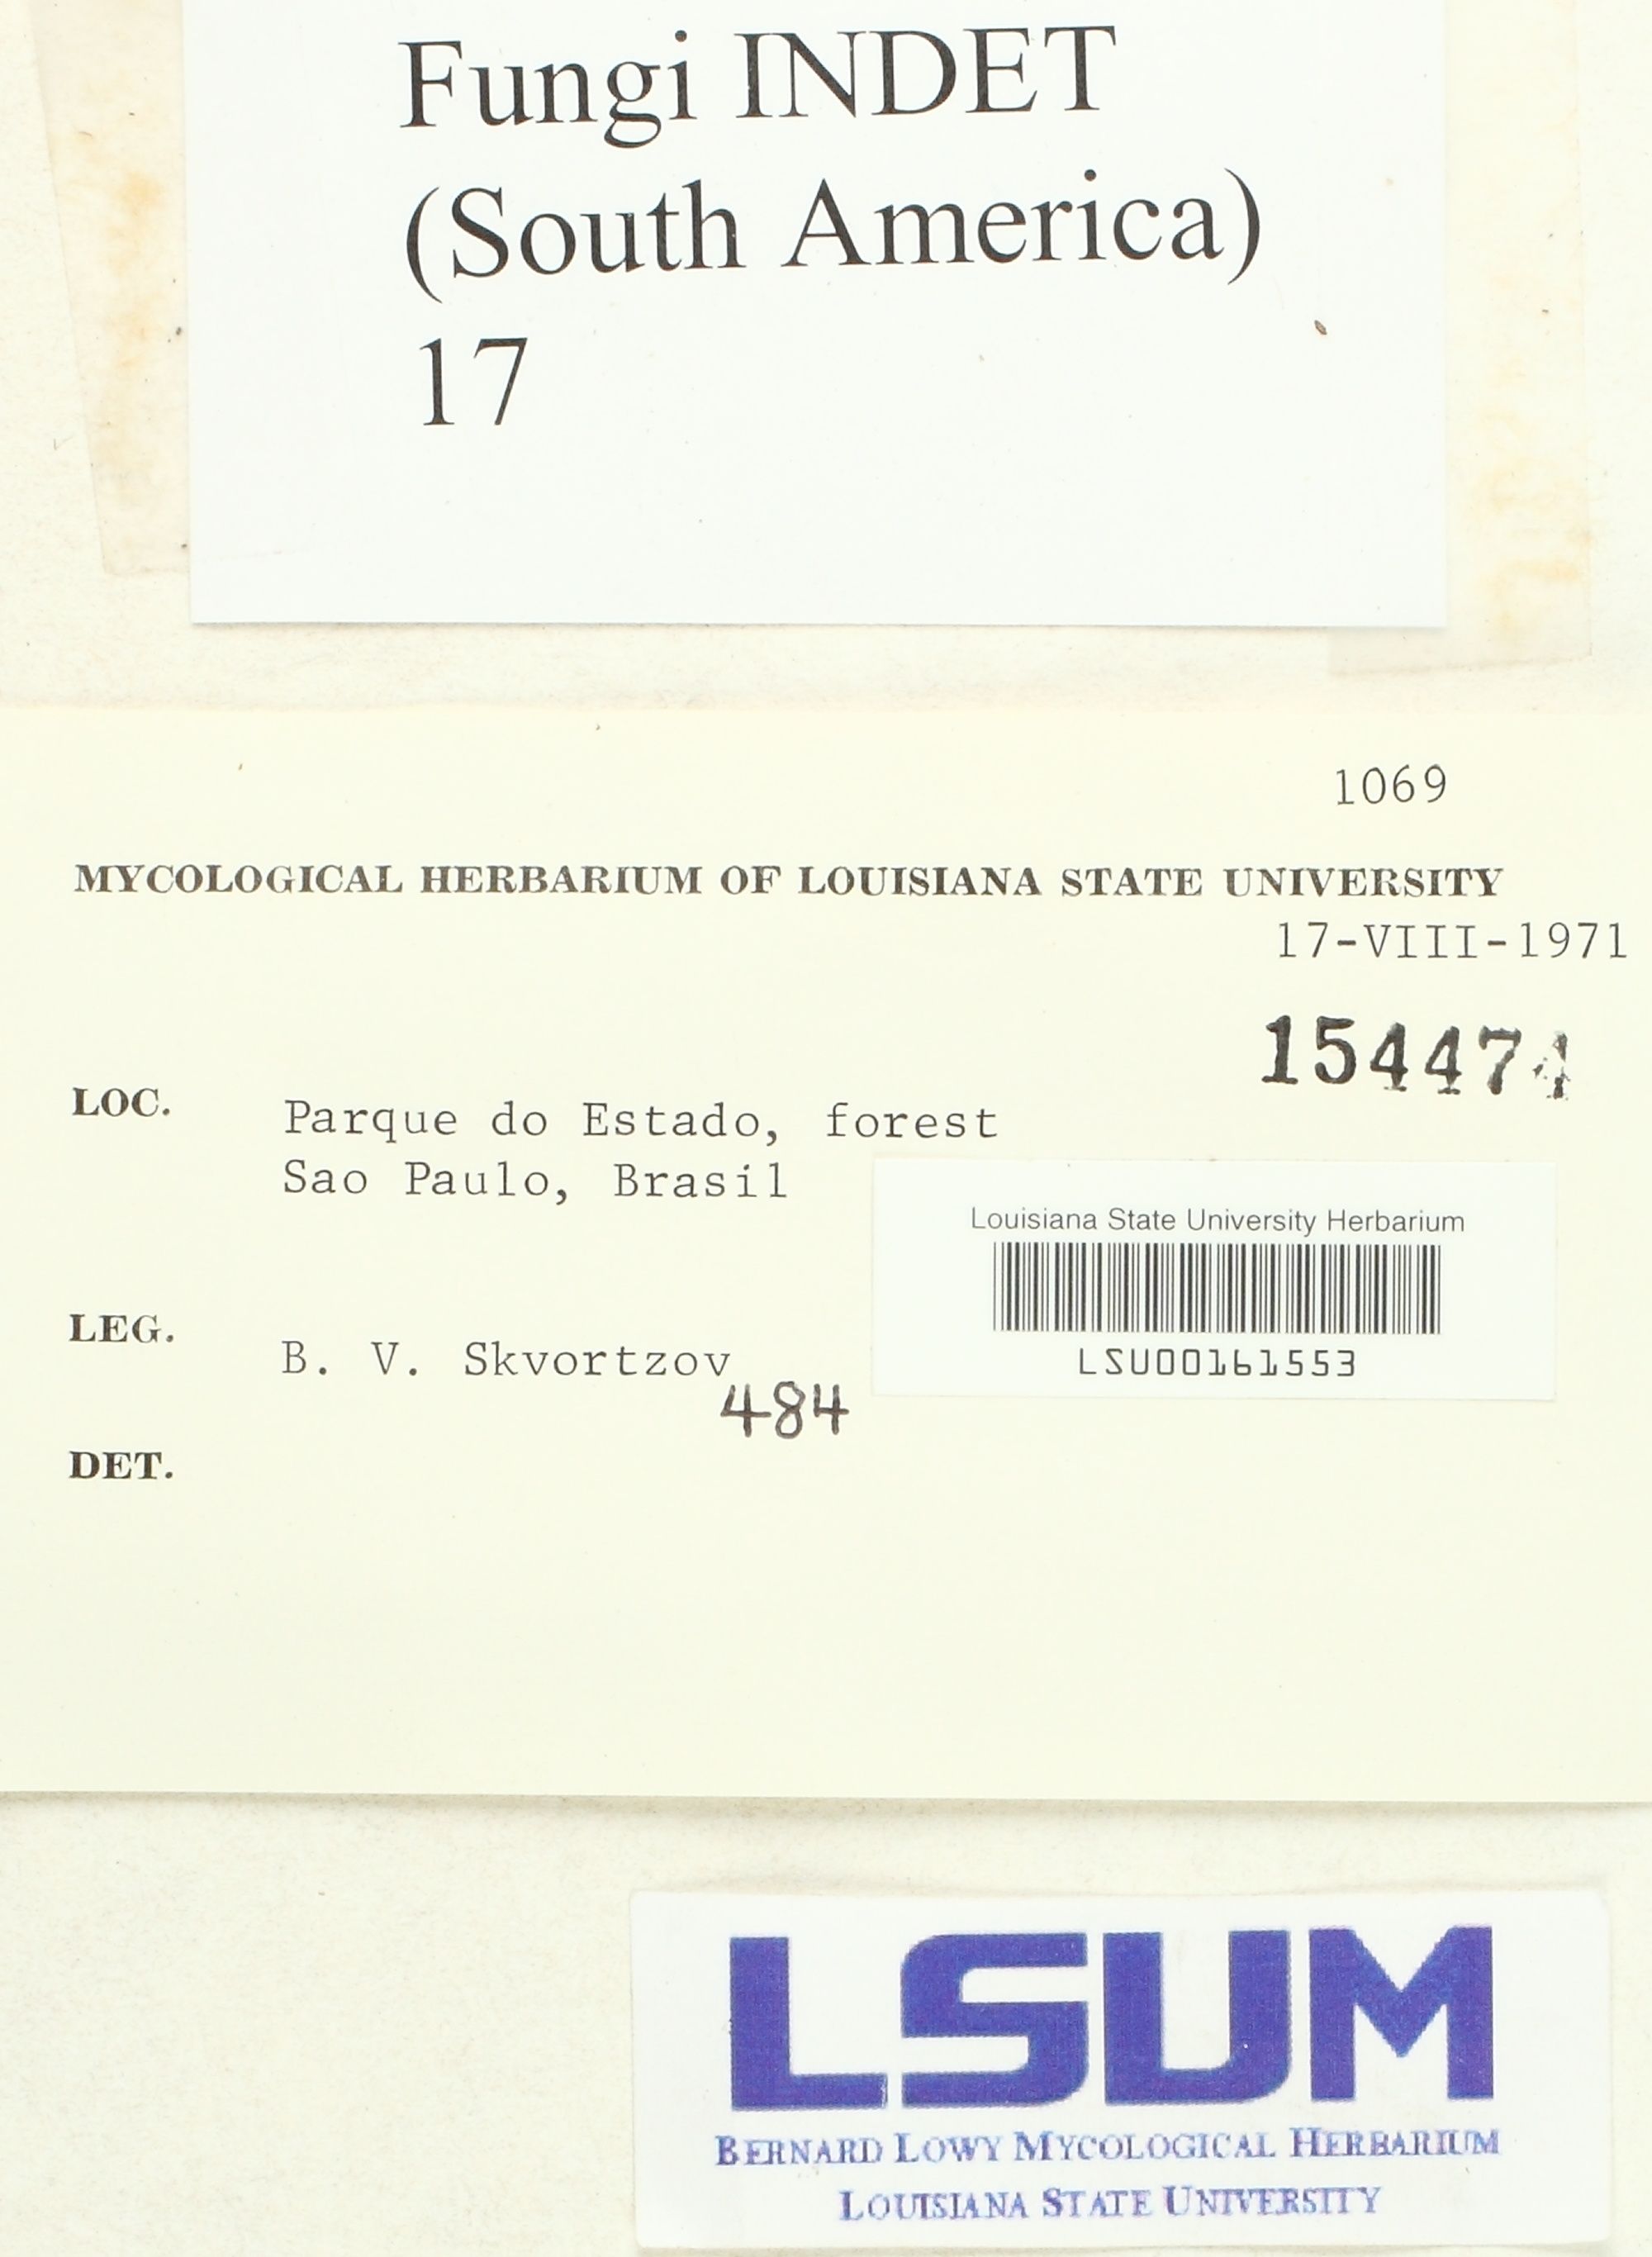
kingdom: Fungi
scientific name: Fungi
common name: Fungi
